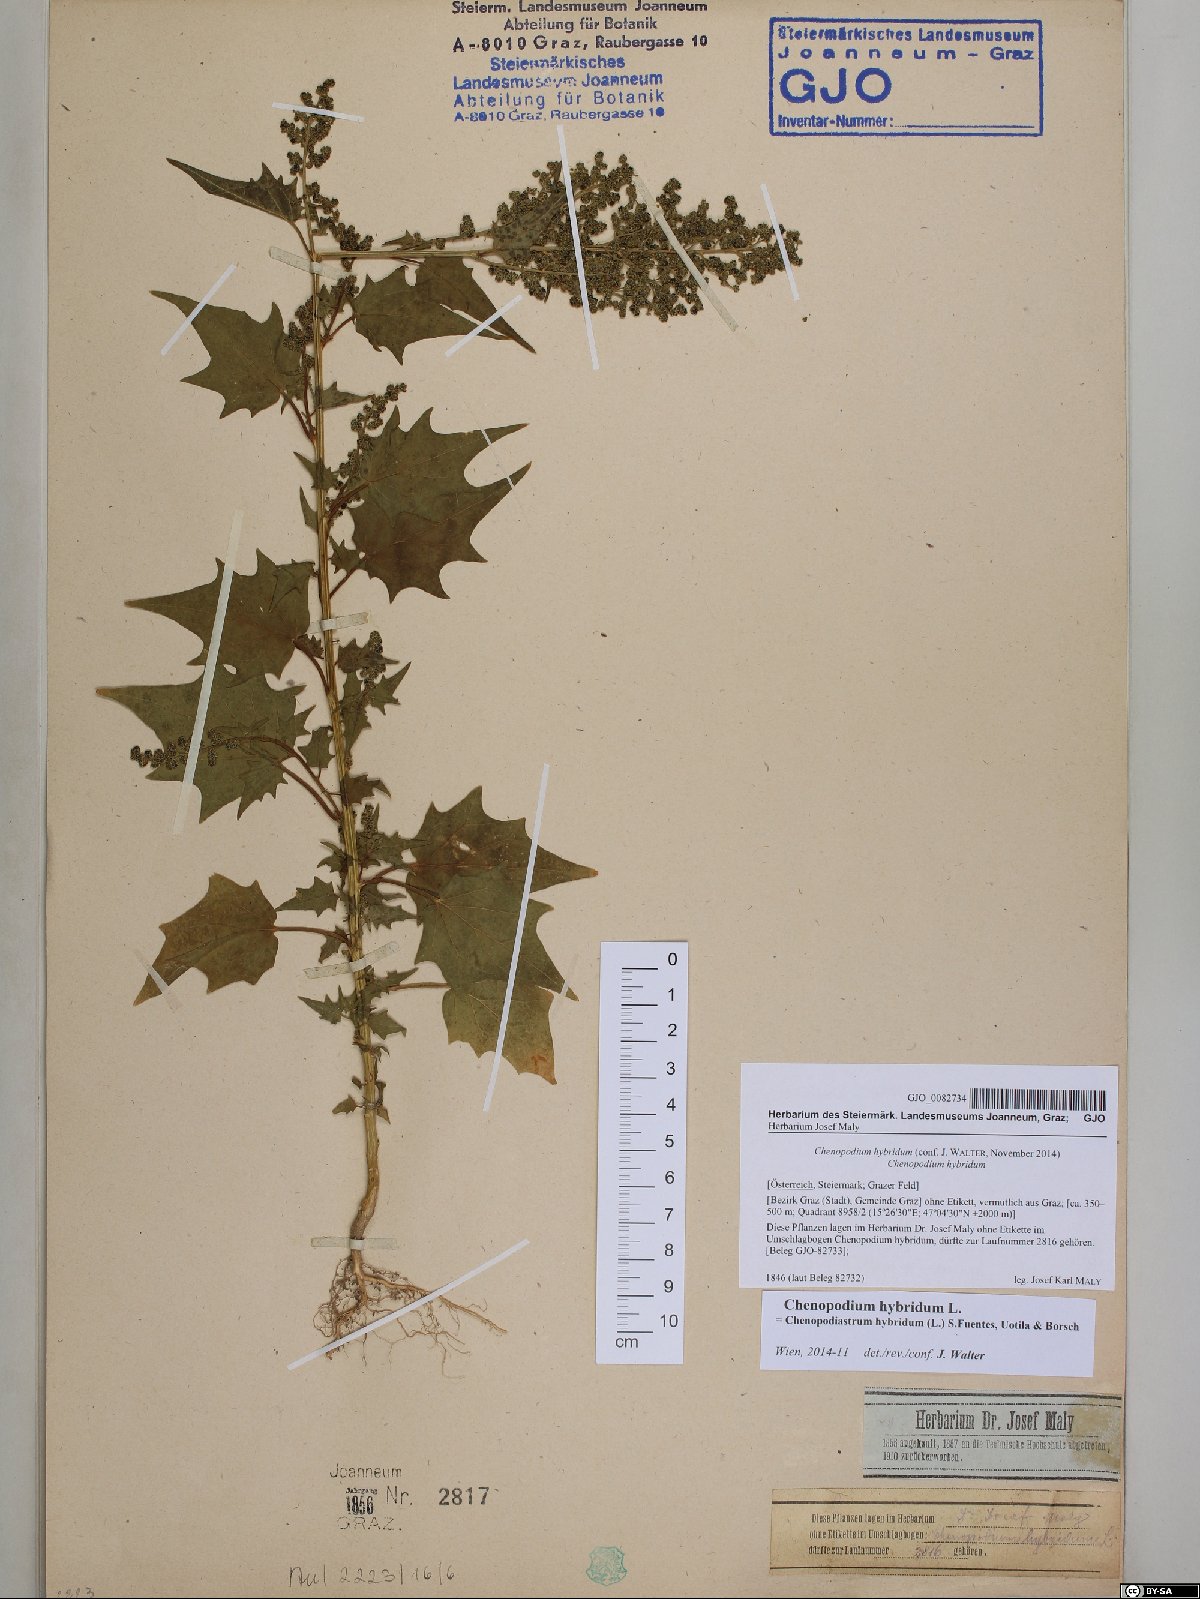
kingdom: Plantae
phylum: Tracheophyta
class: Magnoliopsida
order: Caryophyllales
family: Amaranthaceae
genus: Chenopodiastrum
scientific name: Chenopodiastrum hybridum
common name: Mapleleaf goosefoot
